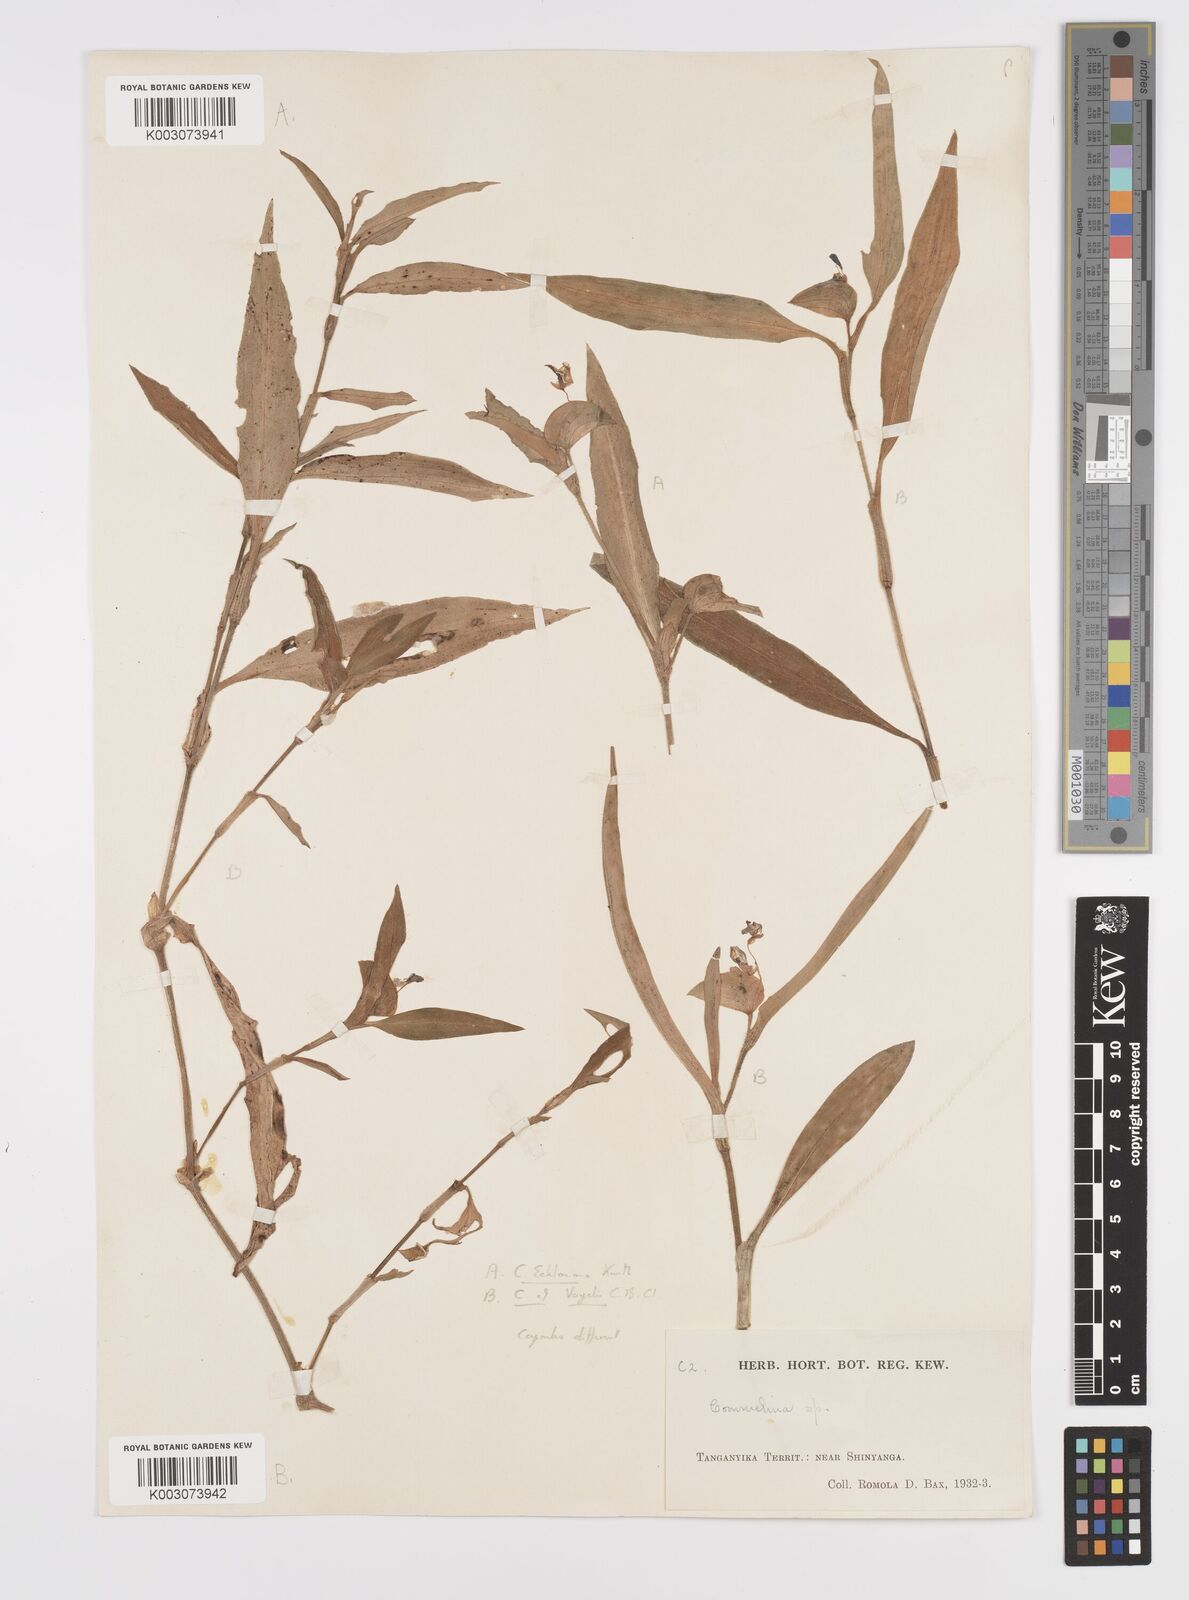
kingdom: Plantae
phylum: Tracheophyta
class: Liliopsida
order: Commelinales
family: Commelinaceae
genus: Commelina
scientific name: Commelina eckloniana
